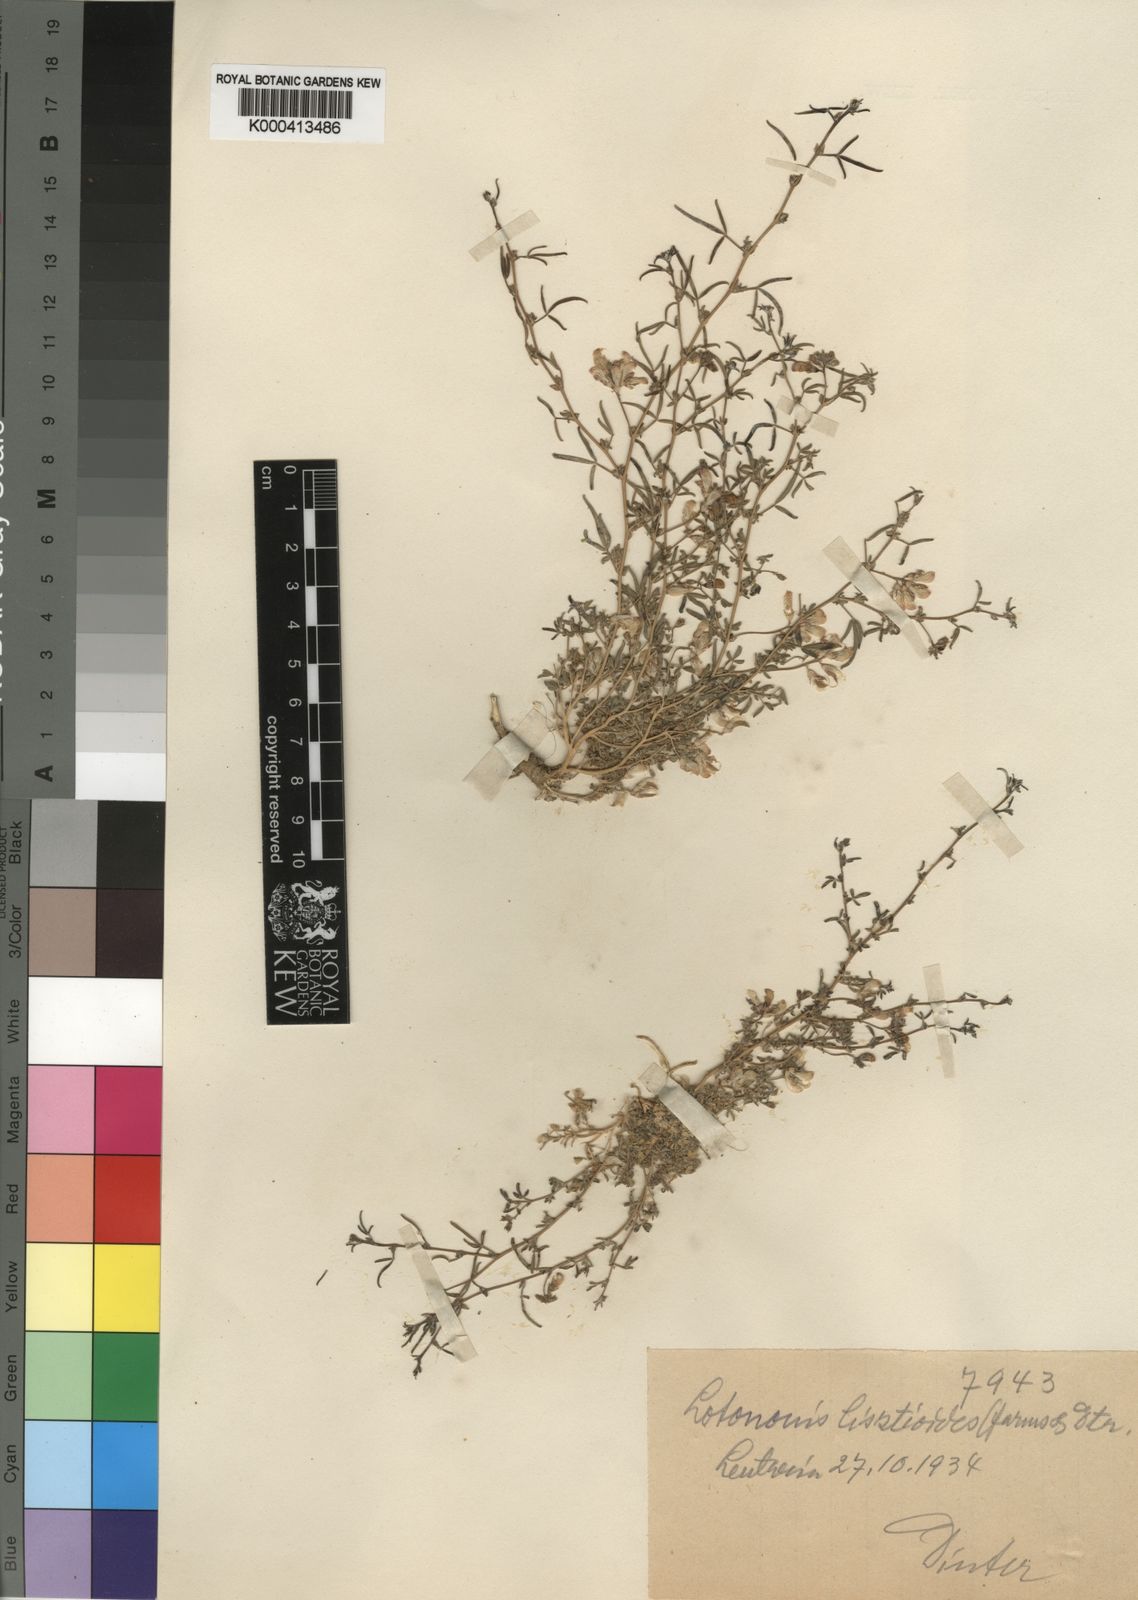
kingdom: Plantae
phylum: Tracheophyta
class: Magnoliopsida
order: Fabales
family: Fabaceae
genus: Lotononis
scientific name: Lotononis listioides
